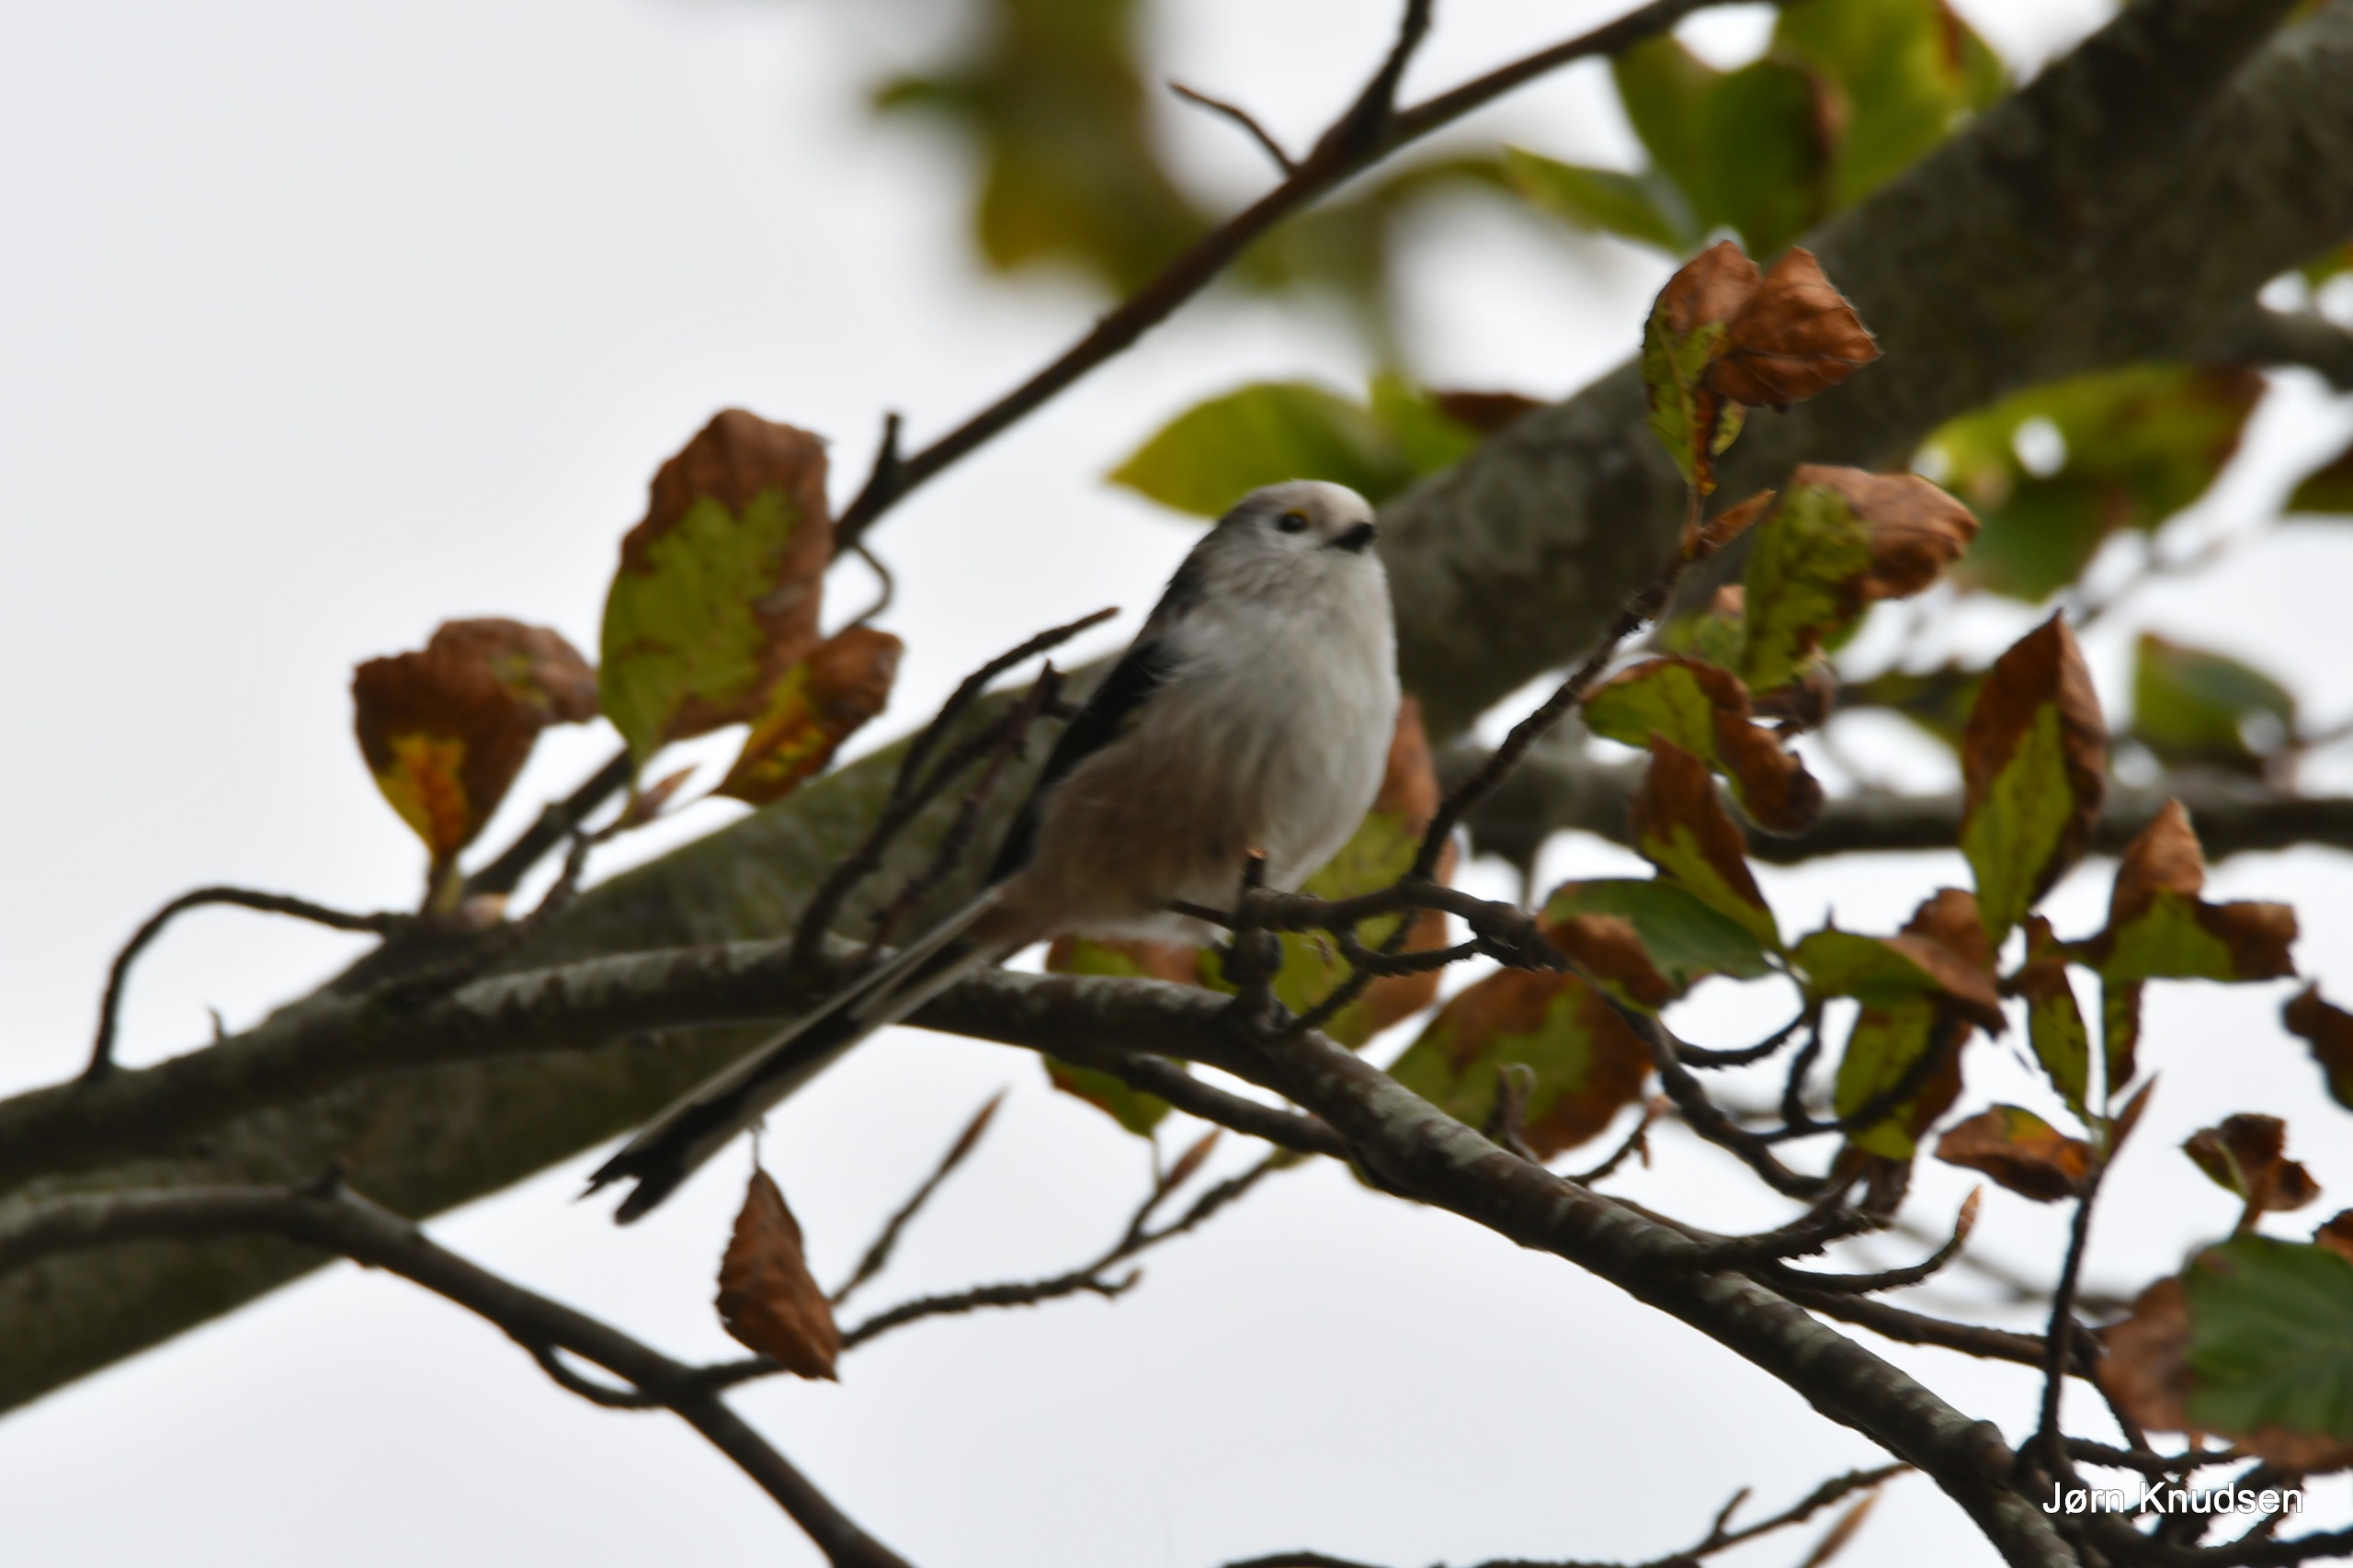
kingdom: Animalia
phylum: Chordata
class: Aves
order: Passeriformes
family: Aegithalidae
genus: Aegithalos
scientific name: Aegithalos caudatus
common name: Halemejse
